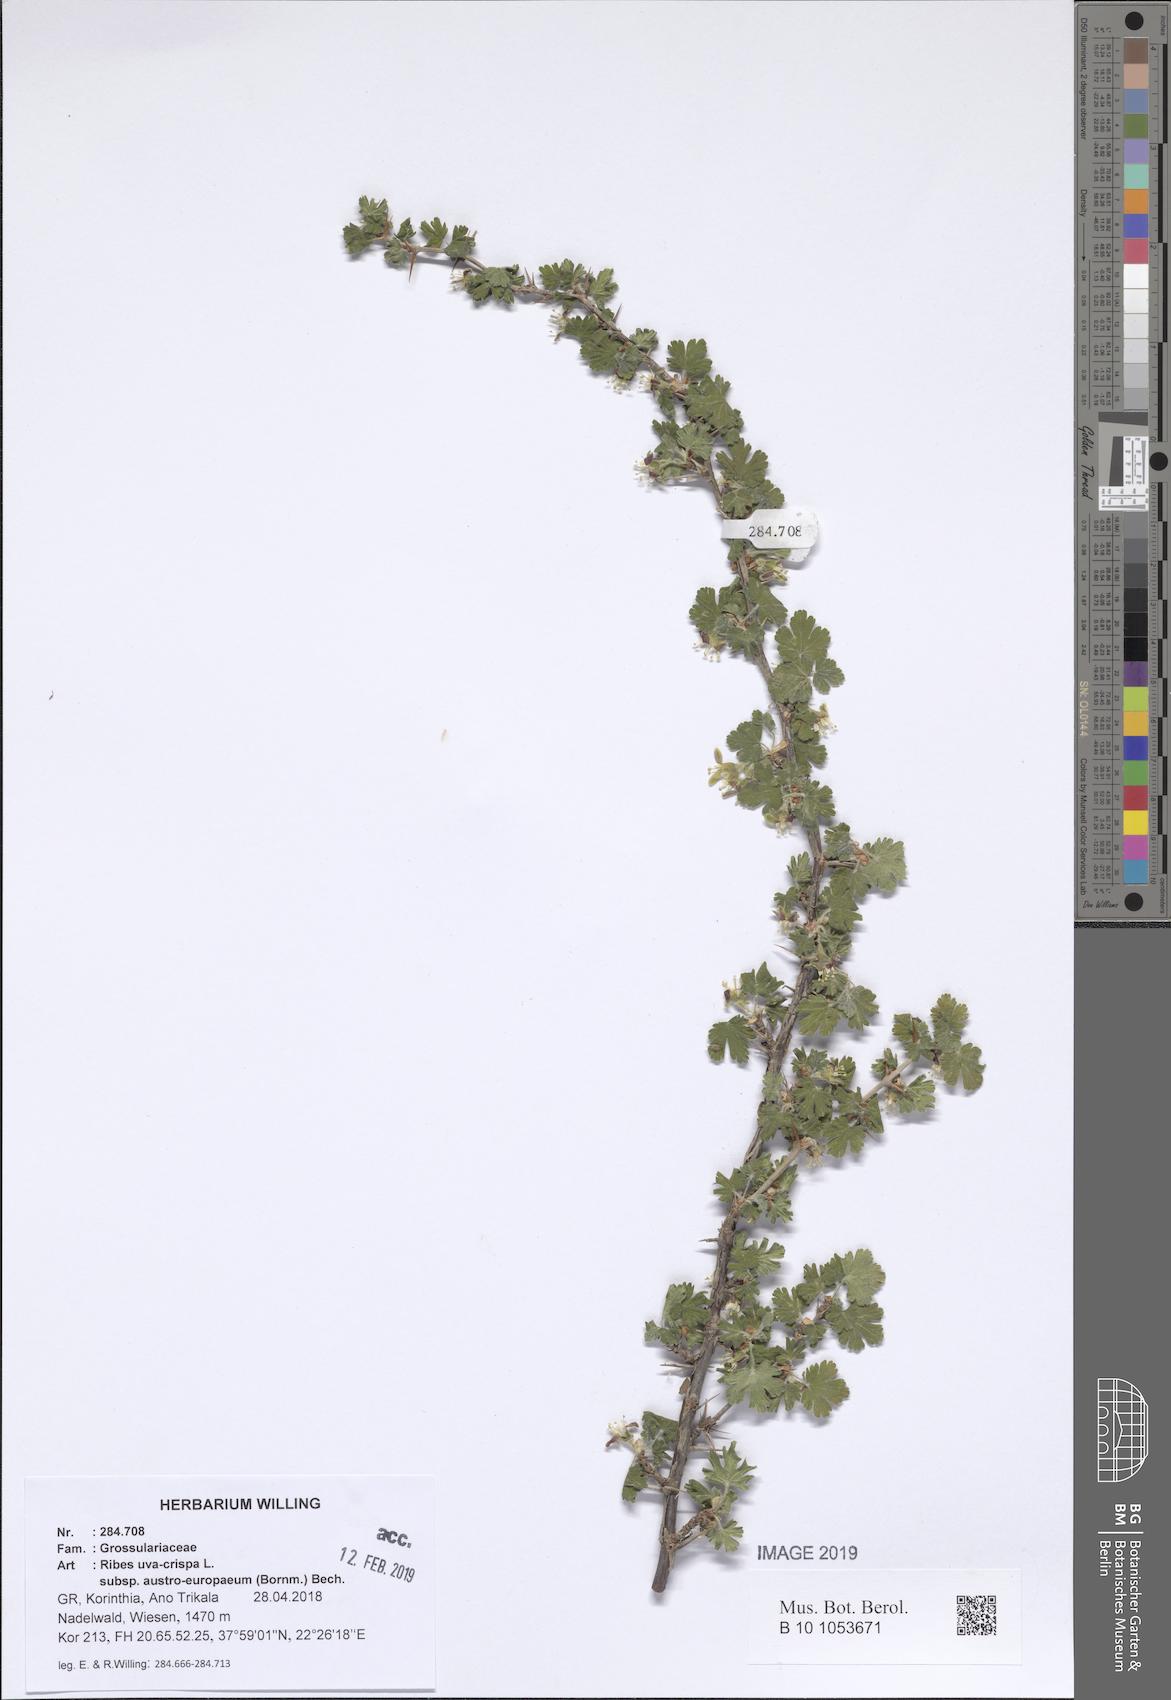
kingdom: Plantae
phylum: Tracheophyta
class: Magnoliopsida
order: Saxifragales
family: Grossulariaceae
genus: Ribes
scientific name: Ribes uva-crispa
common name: Gooseberry
